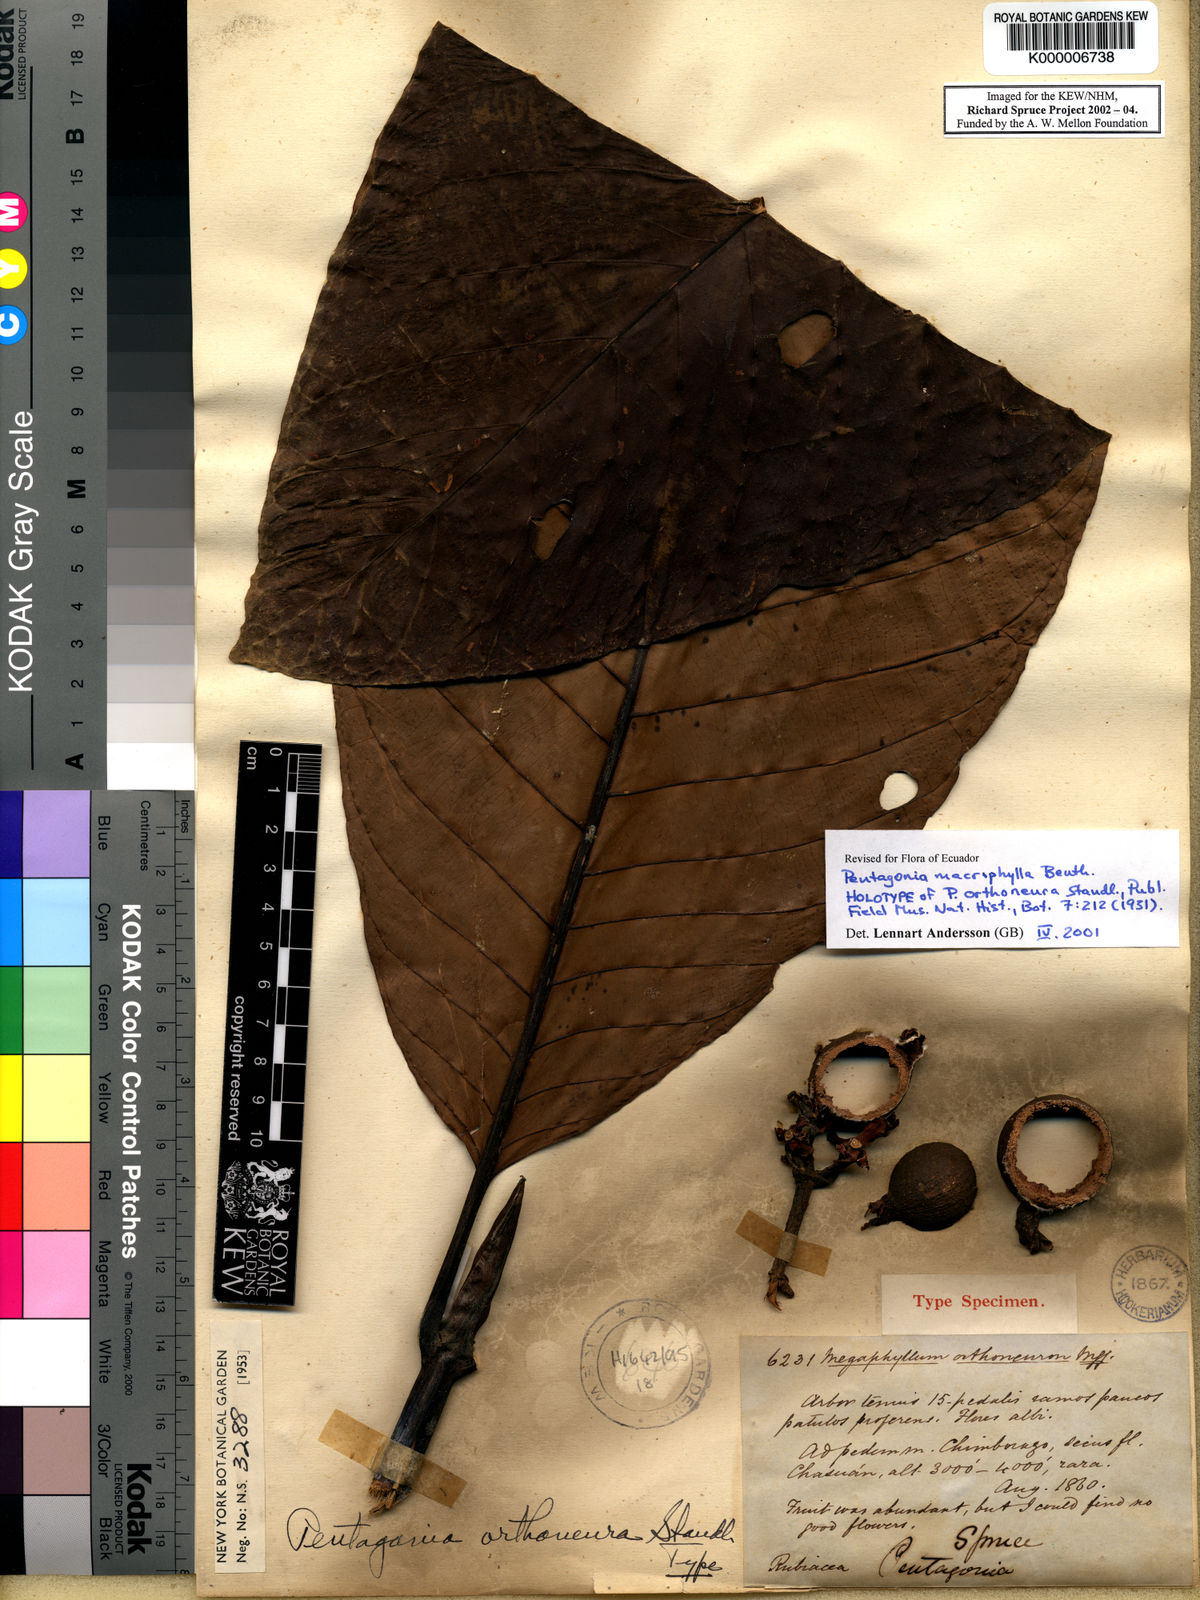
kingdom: Plantae
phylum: Tracheophyta
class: Magnoliopsida
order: Gentianales
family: Rubiaceae
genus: Pentagonia
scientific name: Pentagonia macrophylla
